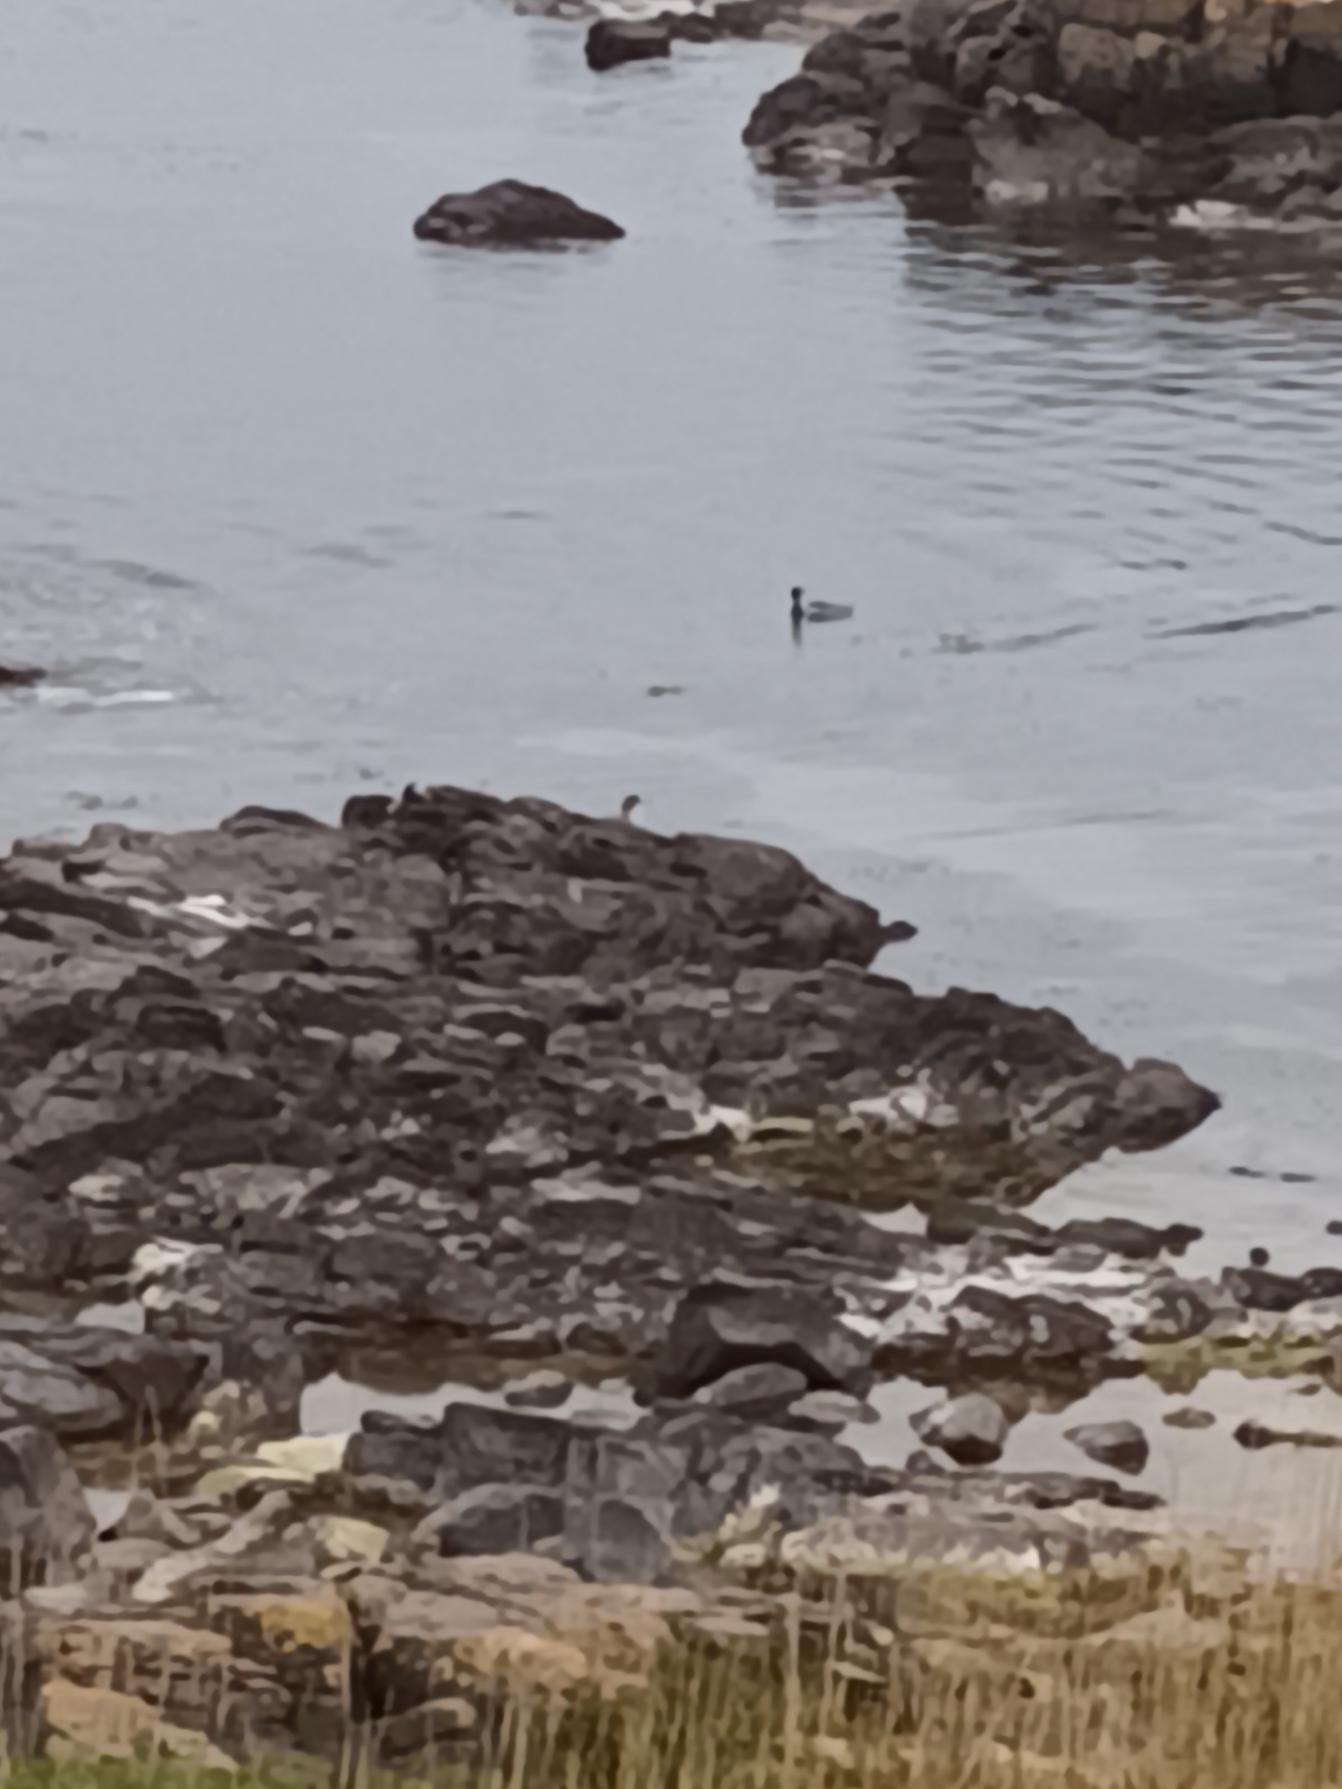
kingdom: Animalia
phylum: Chordata
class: Aves
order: Anseriformes
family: Anatidae
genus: Mergus
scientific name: Mergus serrator
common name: Toppet skallesluger
